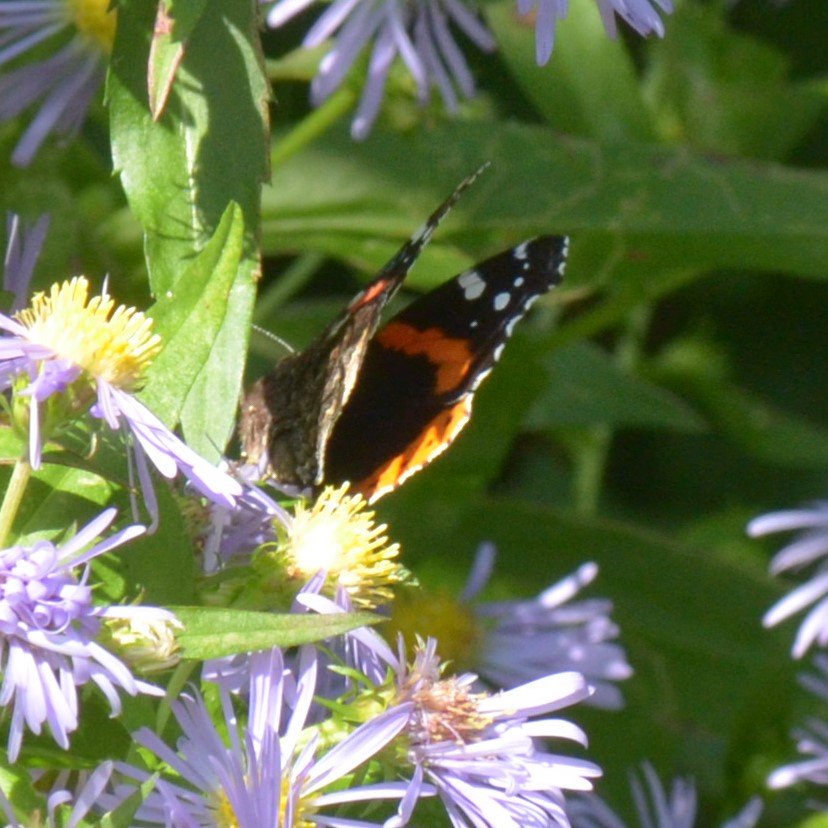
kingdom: Animalia
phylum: Arthropoda
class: Insecta
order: Lepidoptera
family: Nymphalidae
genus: Vanessa
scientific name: Vanessa atalanta
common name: Red Admiral
